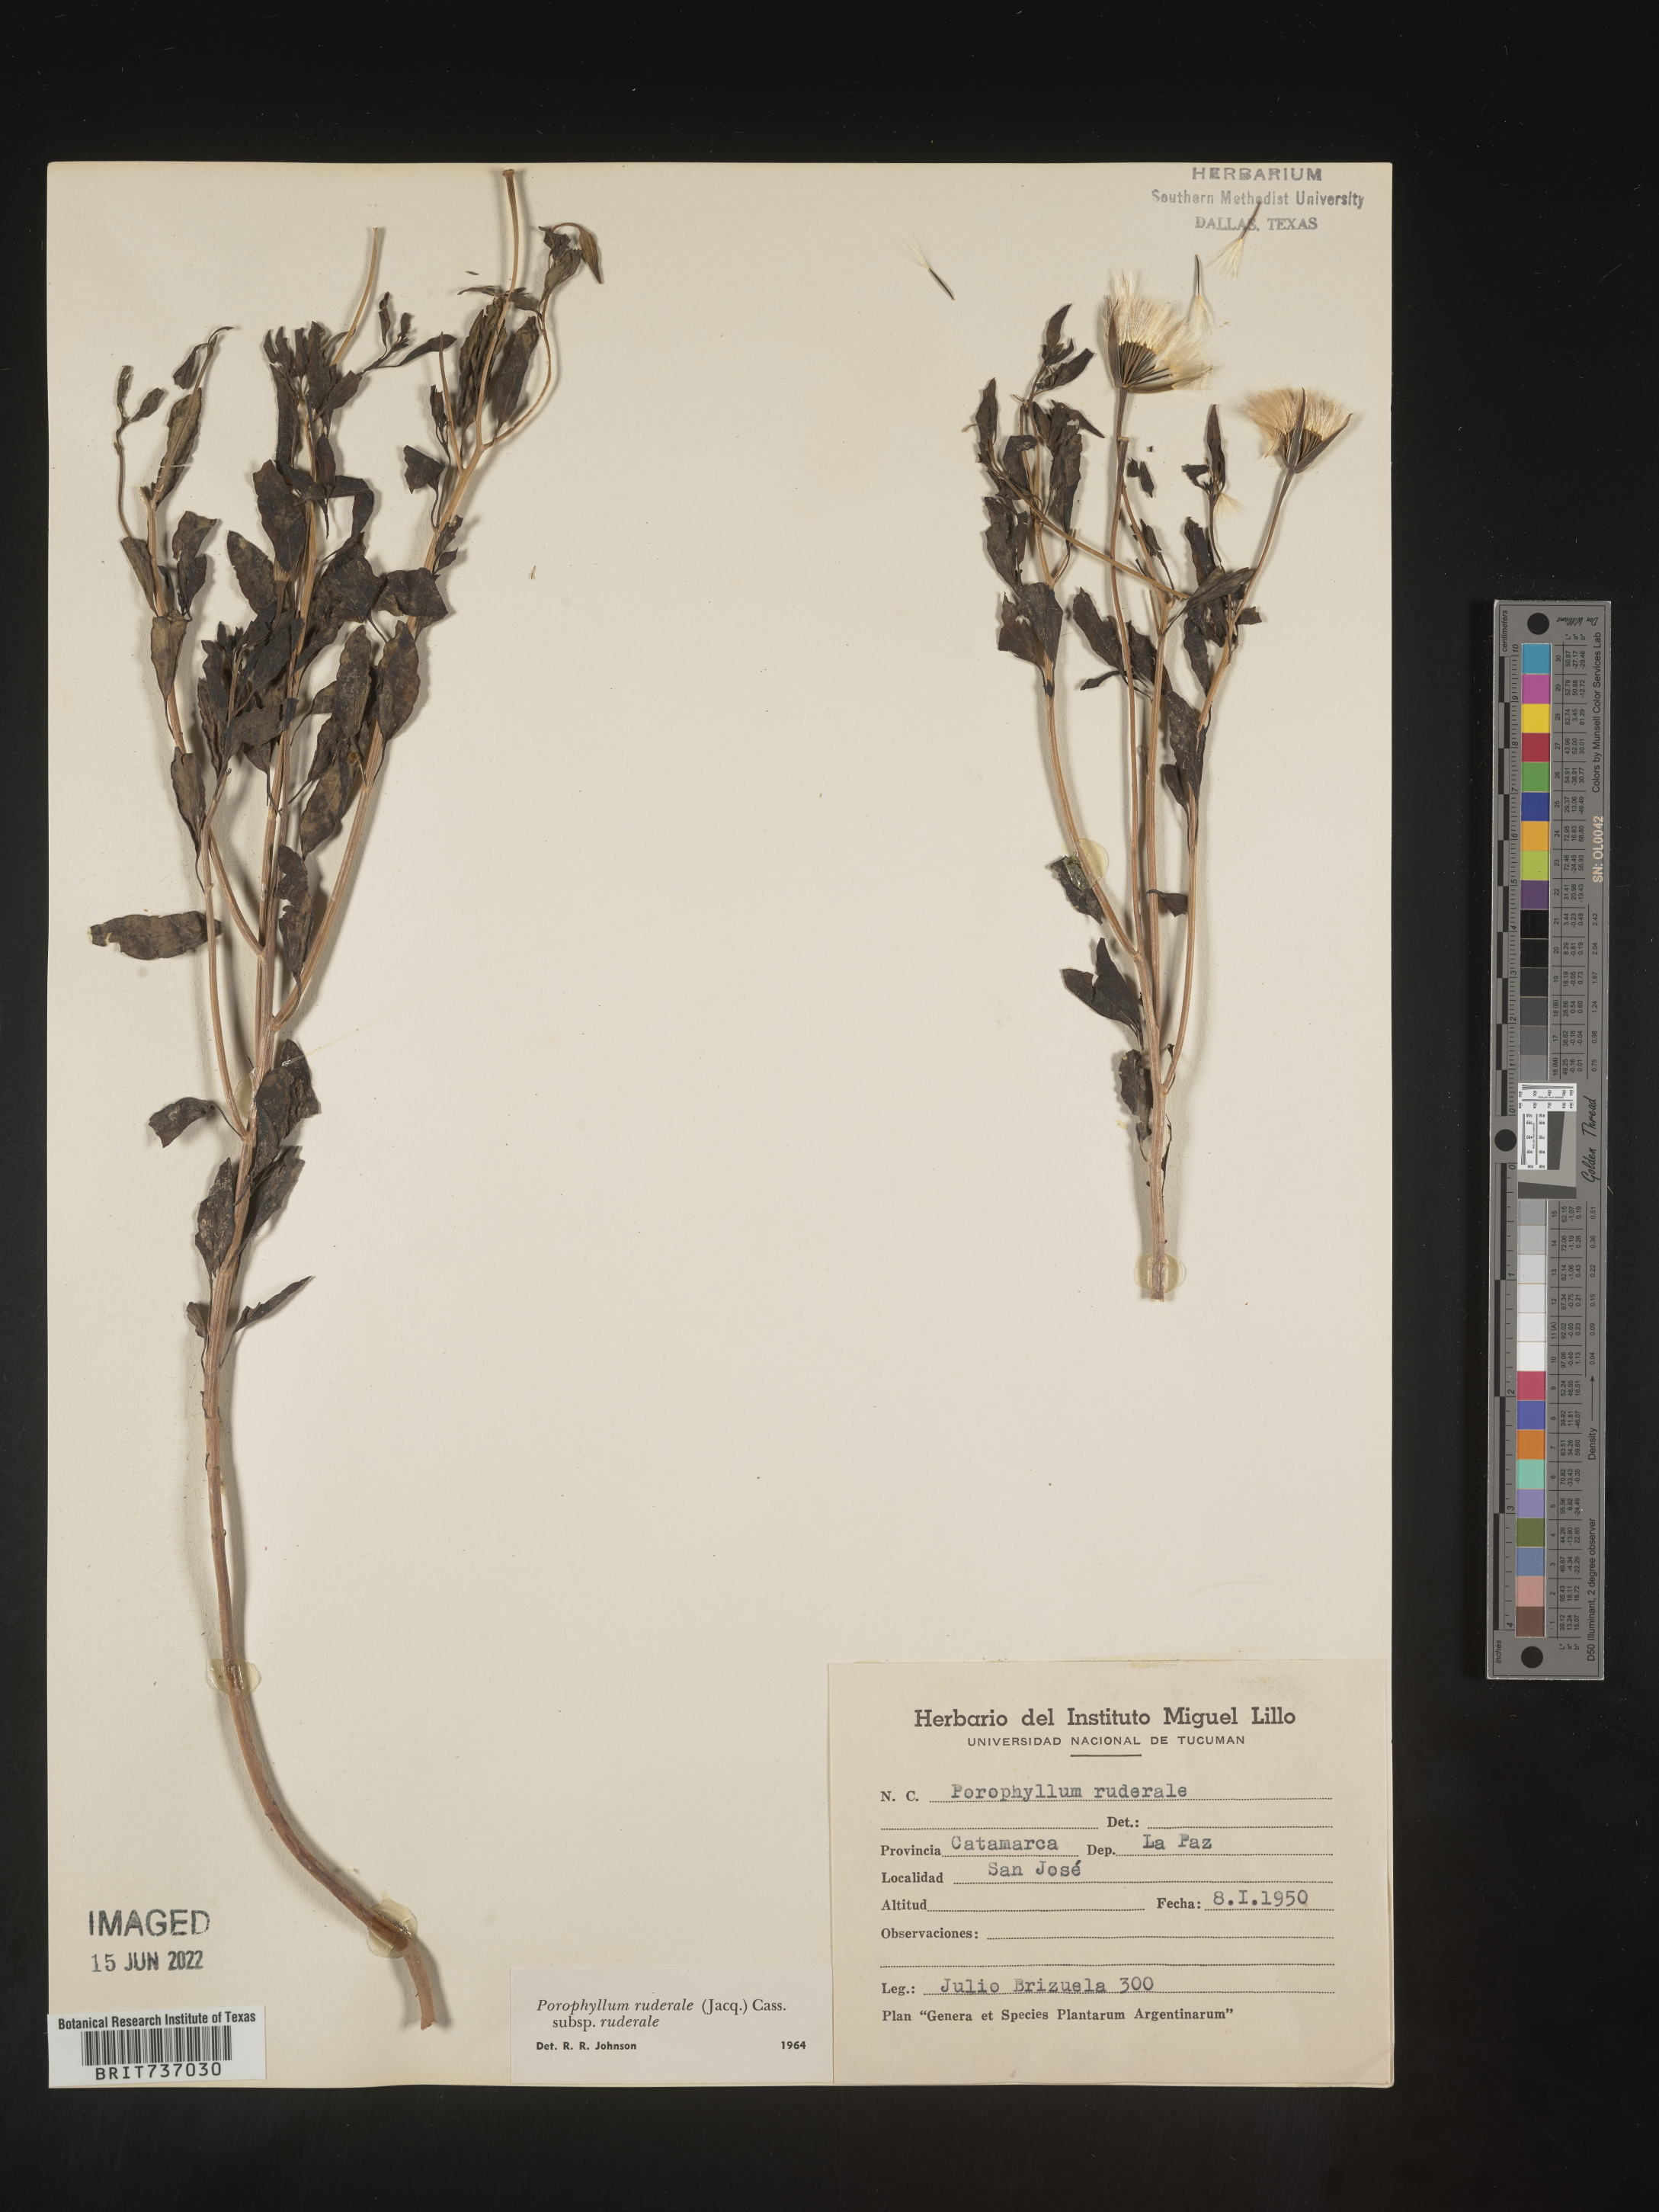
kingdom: Plantae
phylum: Tracheophyta
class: Magnoliopsida
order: Asterales
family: Asteraceae
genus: Porophyllum
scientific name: Porophyllum
